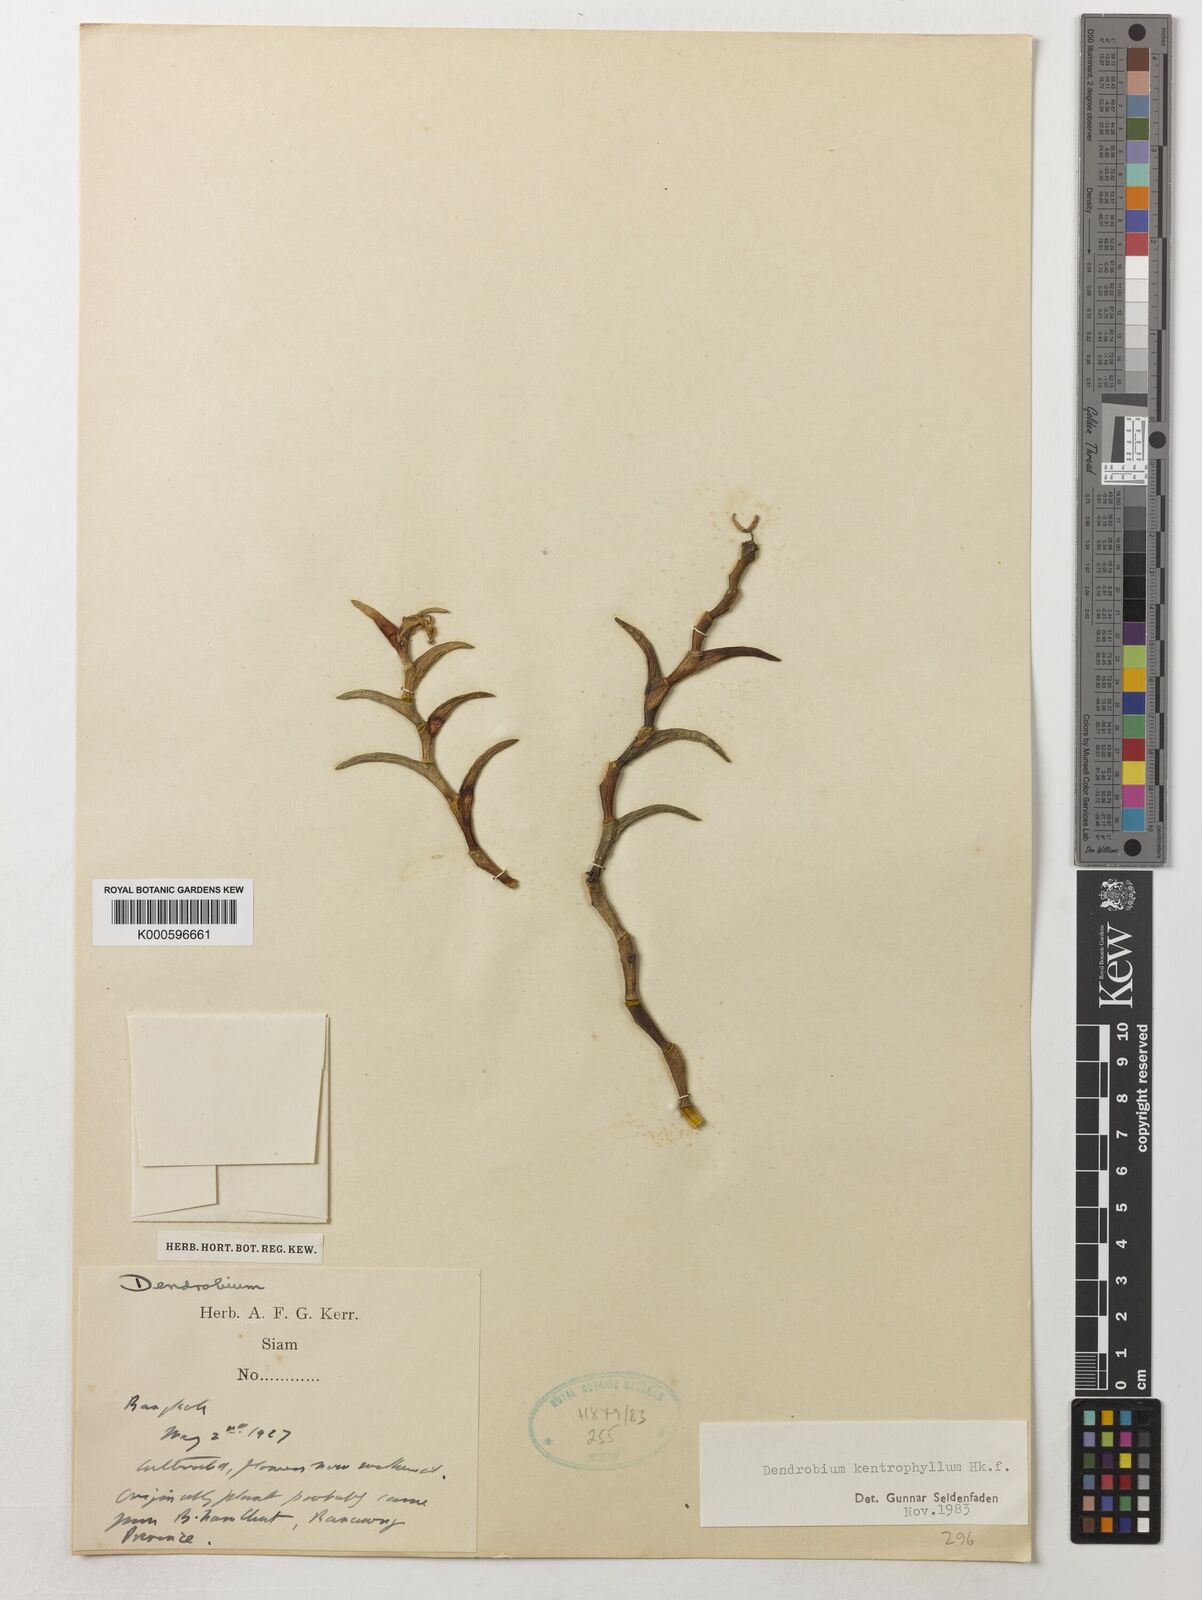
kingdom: Plantae
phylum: Tracheophyta
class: Liliopsida
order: Asparagales
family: Orchidaceae
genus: Dendrobium
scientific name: Dendrobium kentrophyllum
